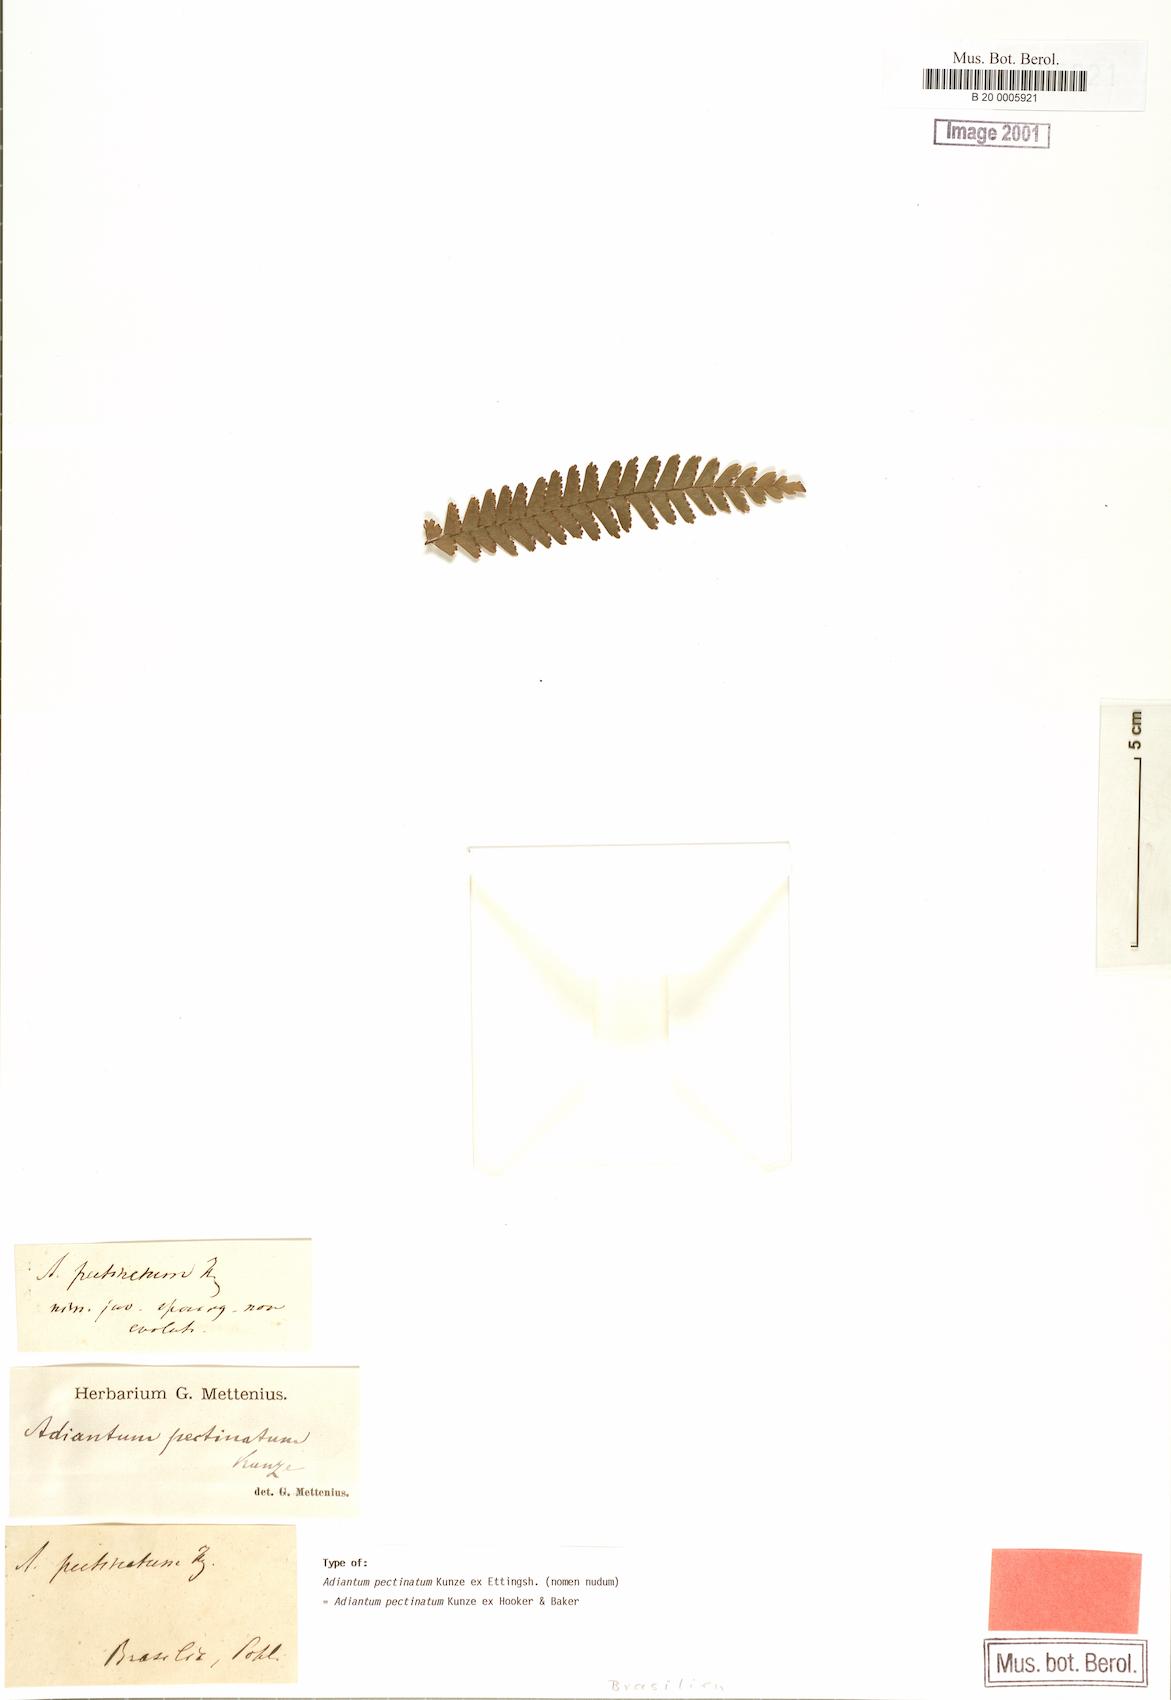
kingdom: Plantae
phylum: Tracheophyta
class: Polypodiopsida
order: Polypodiales
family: Pteridaceae
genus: Adiantum
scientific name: Adiantum pectinatum
